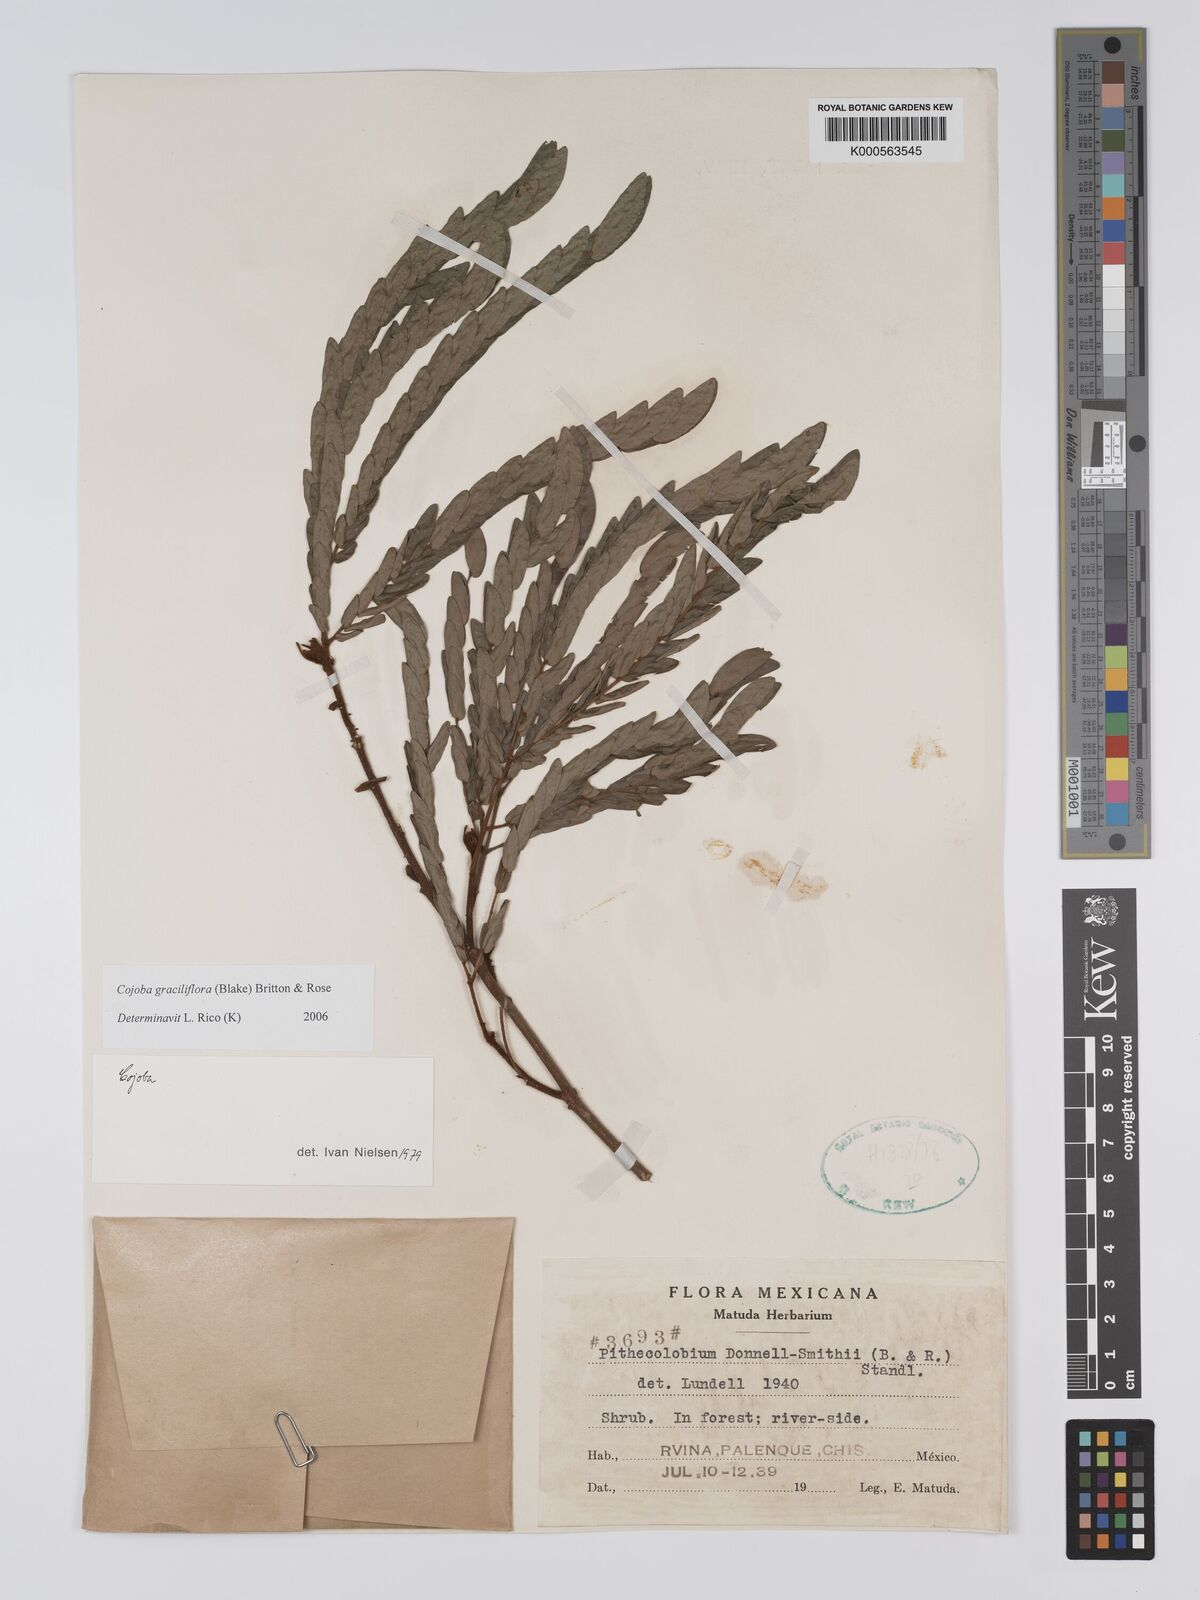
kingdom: Plantae
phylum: Tracheophyta
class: Magnoliopsida
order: Fabales
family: Fabaceae
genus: Cojoba
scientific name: Cojoba graciliflora
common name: Guadeloupe blackbead
